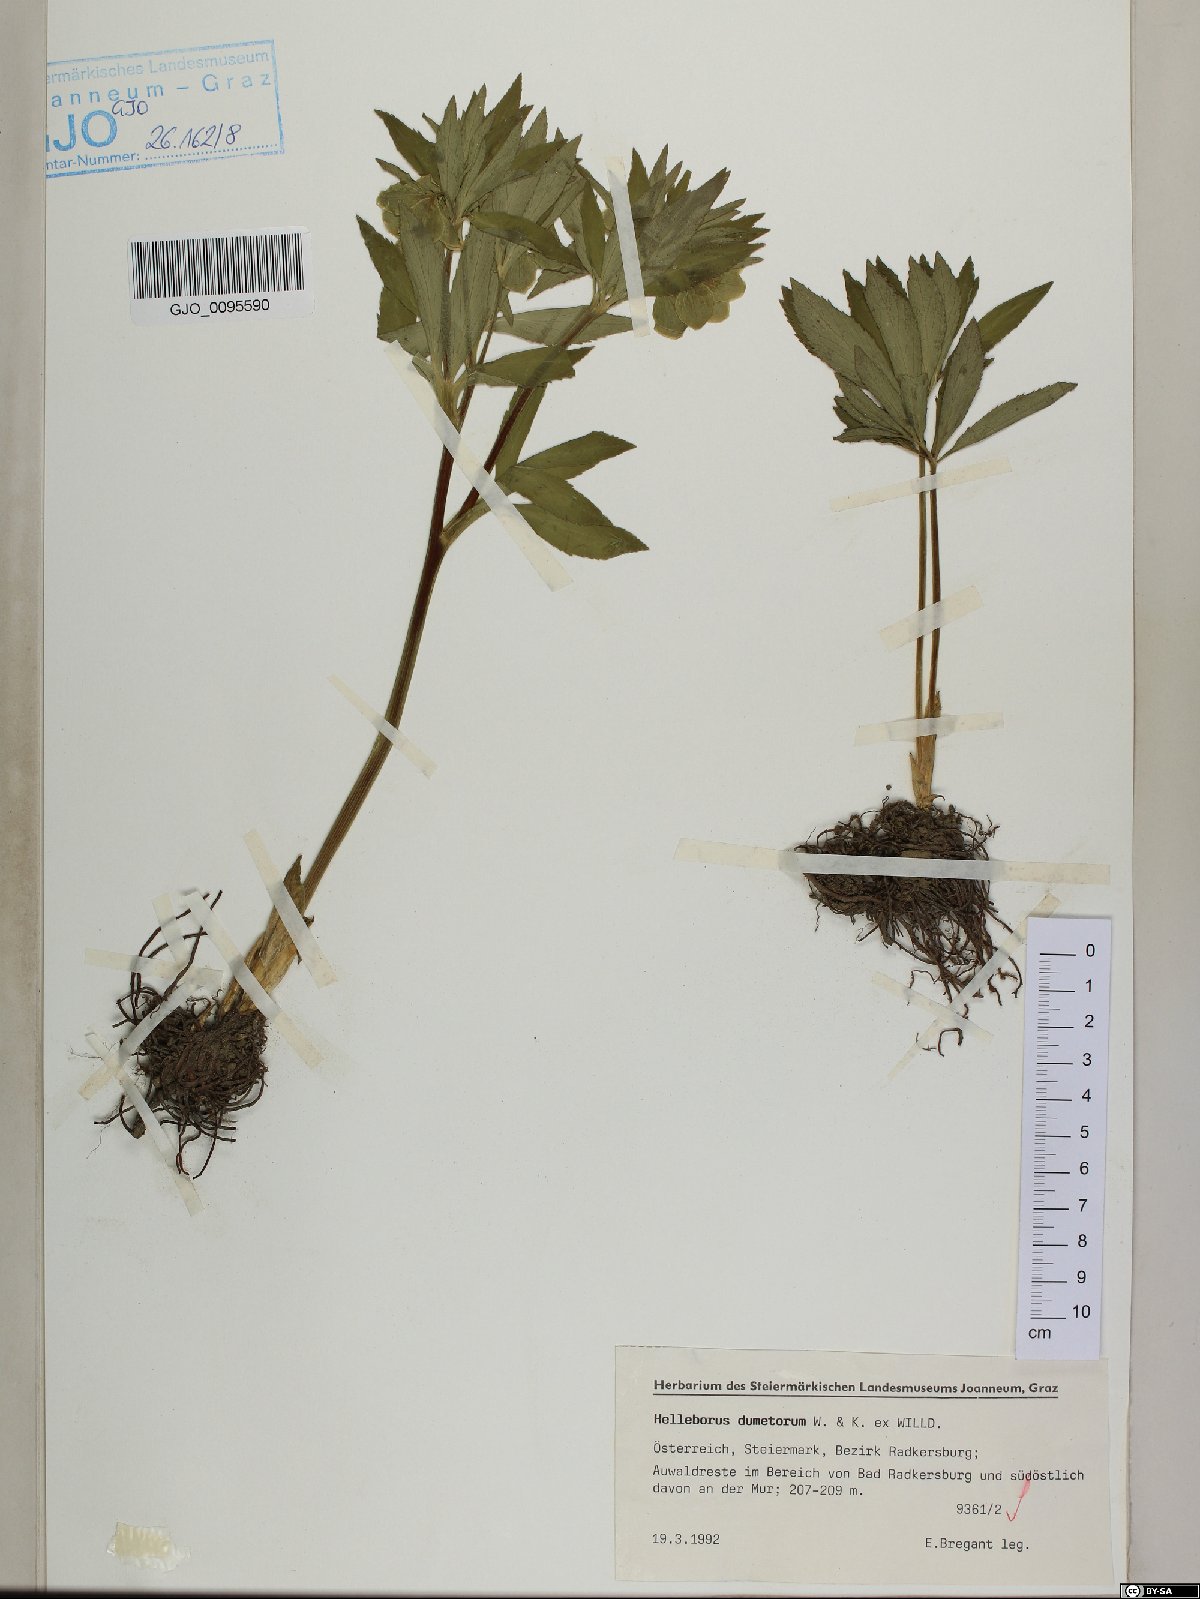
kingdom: Plantae
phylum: Tracheophyta
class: Magnoliopsida
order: Ranunculales
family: Ranunculaceae
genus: Helleborus
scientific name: Helleborus dumetorum
